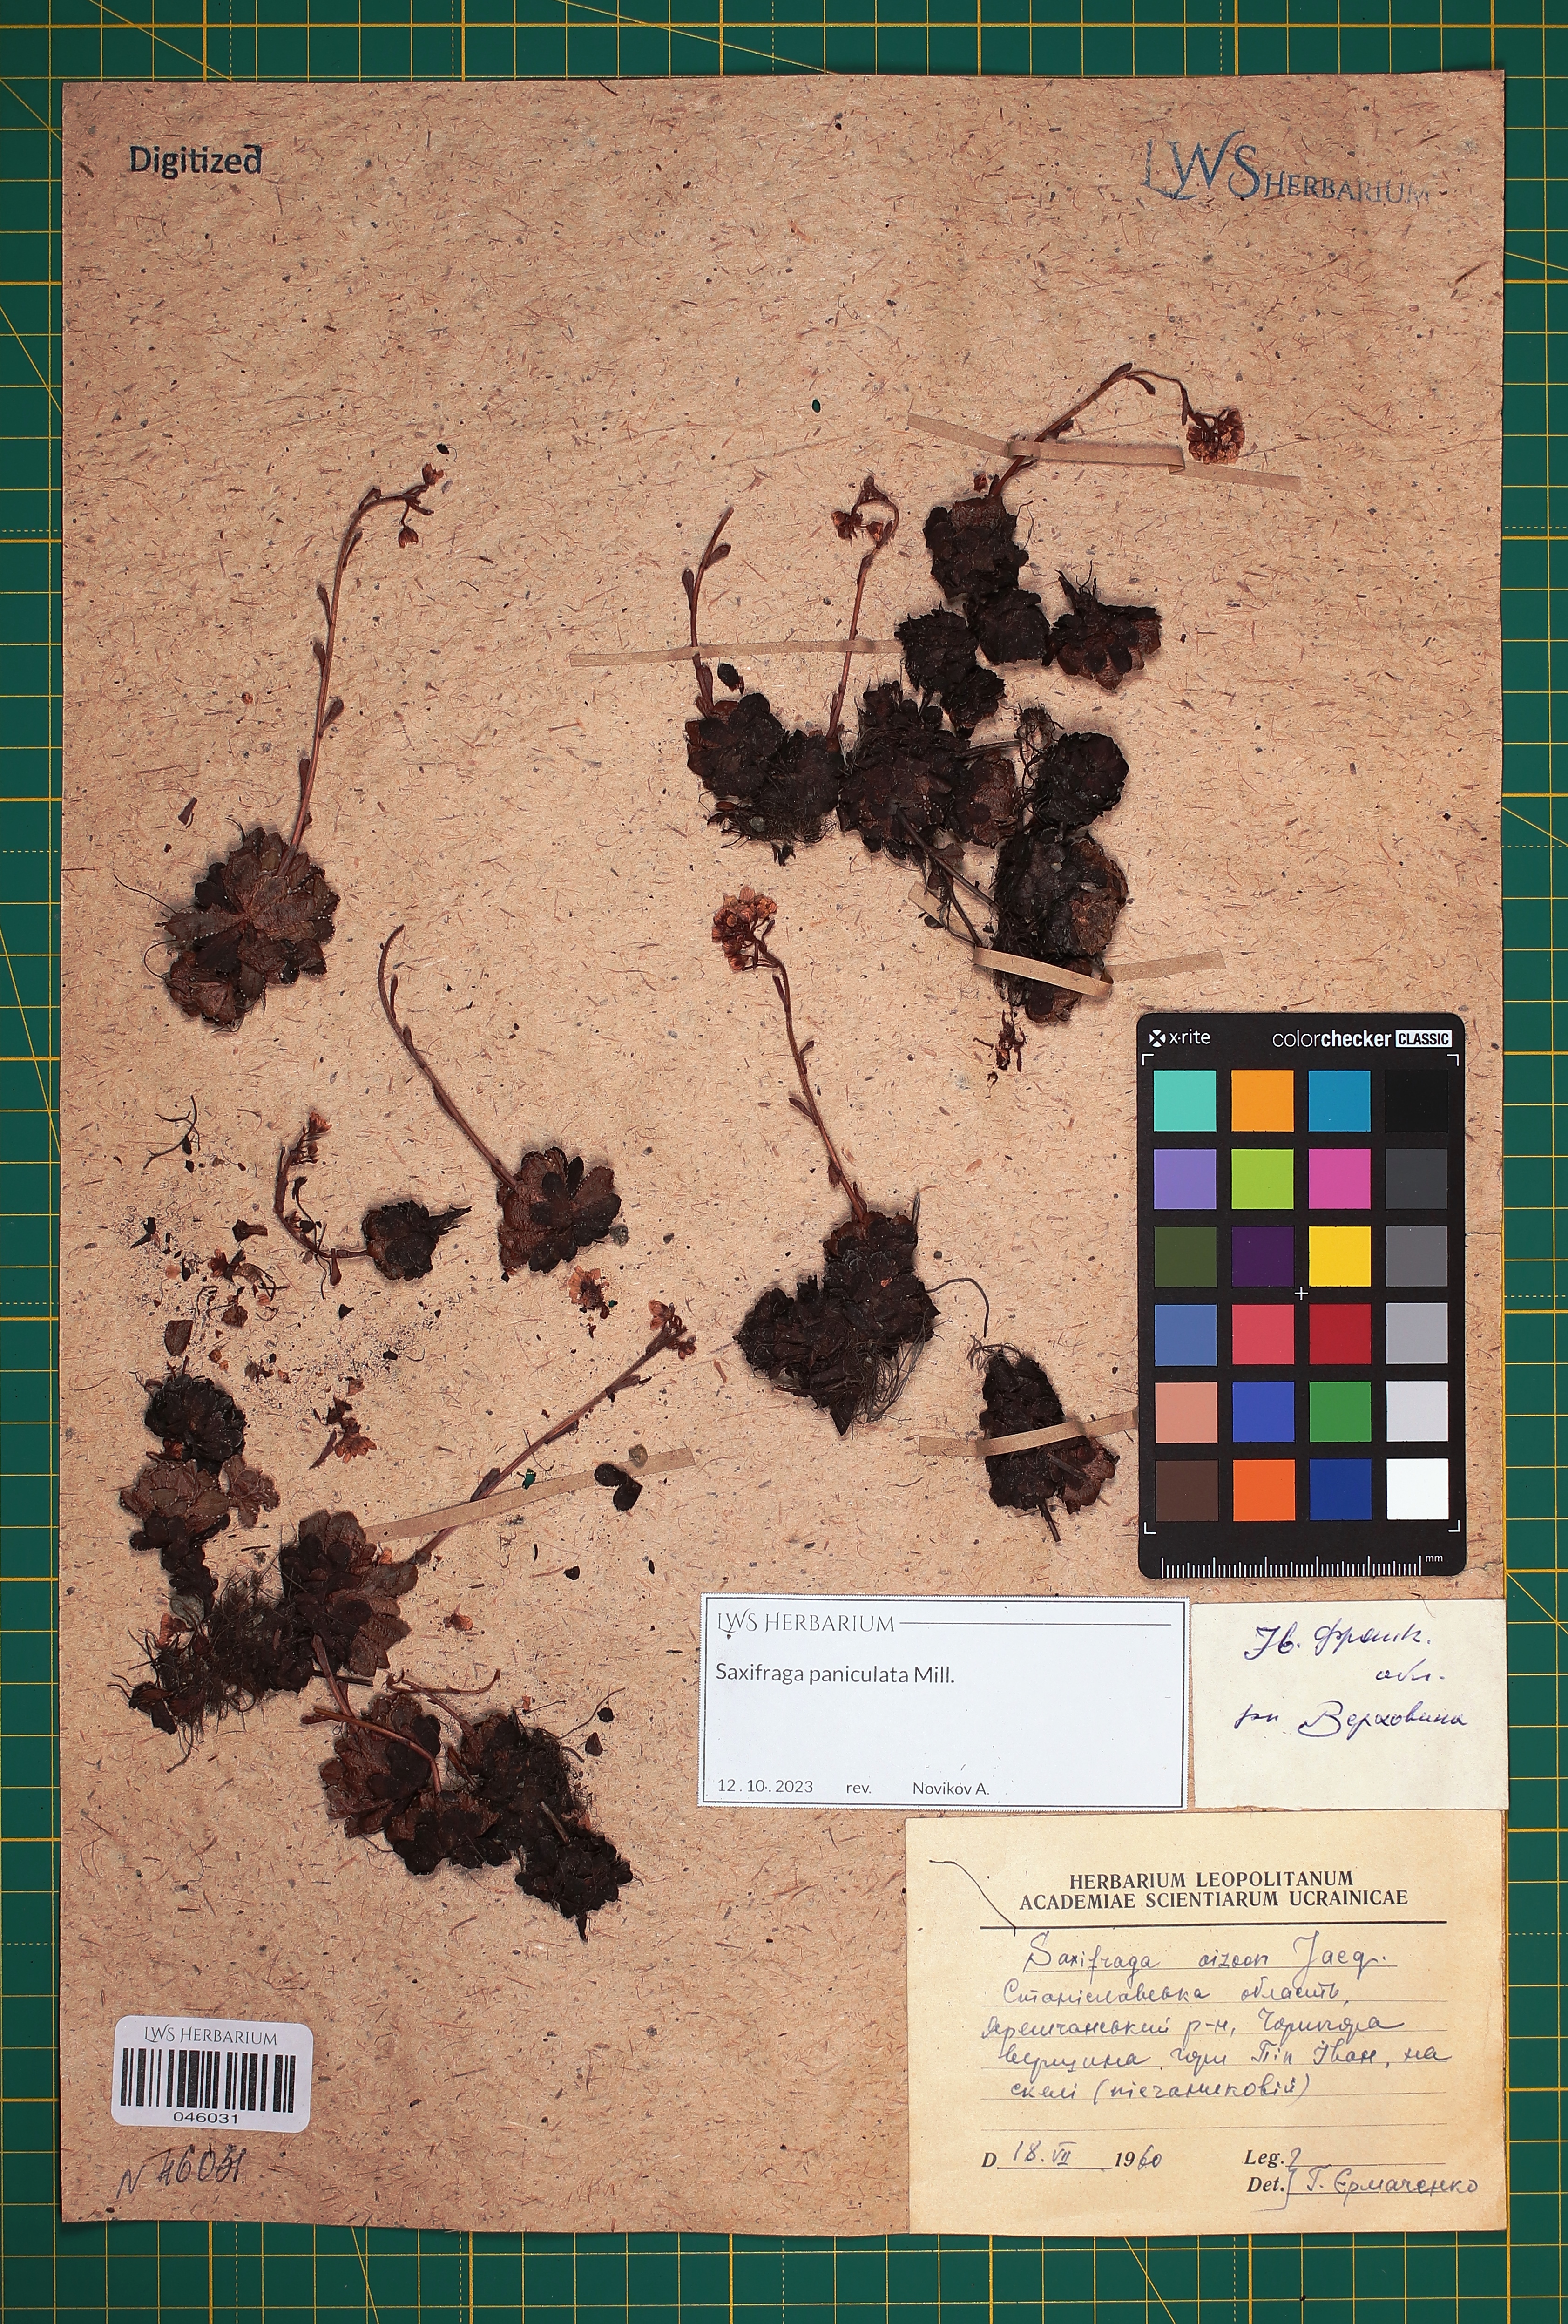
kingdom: Plantae
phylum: Tracheophyta
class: Magnoliopsida
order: Saxifragales
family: Saxifragaceae
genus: Saxifraga
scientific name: Saxifraga paniculata
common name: Livelong saxifrage
